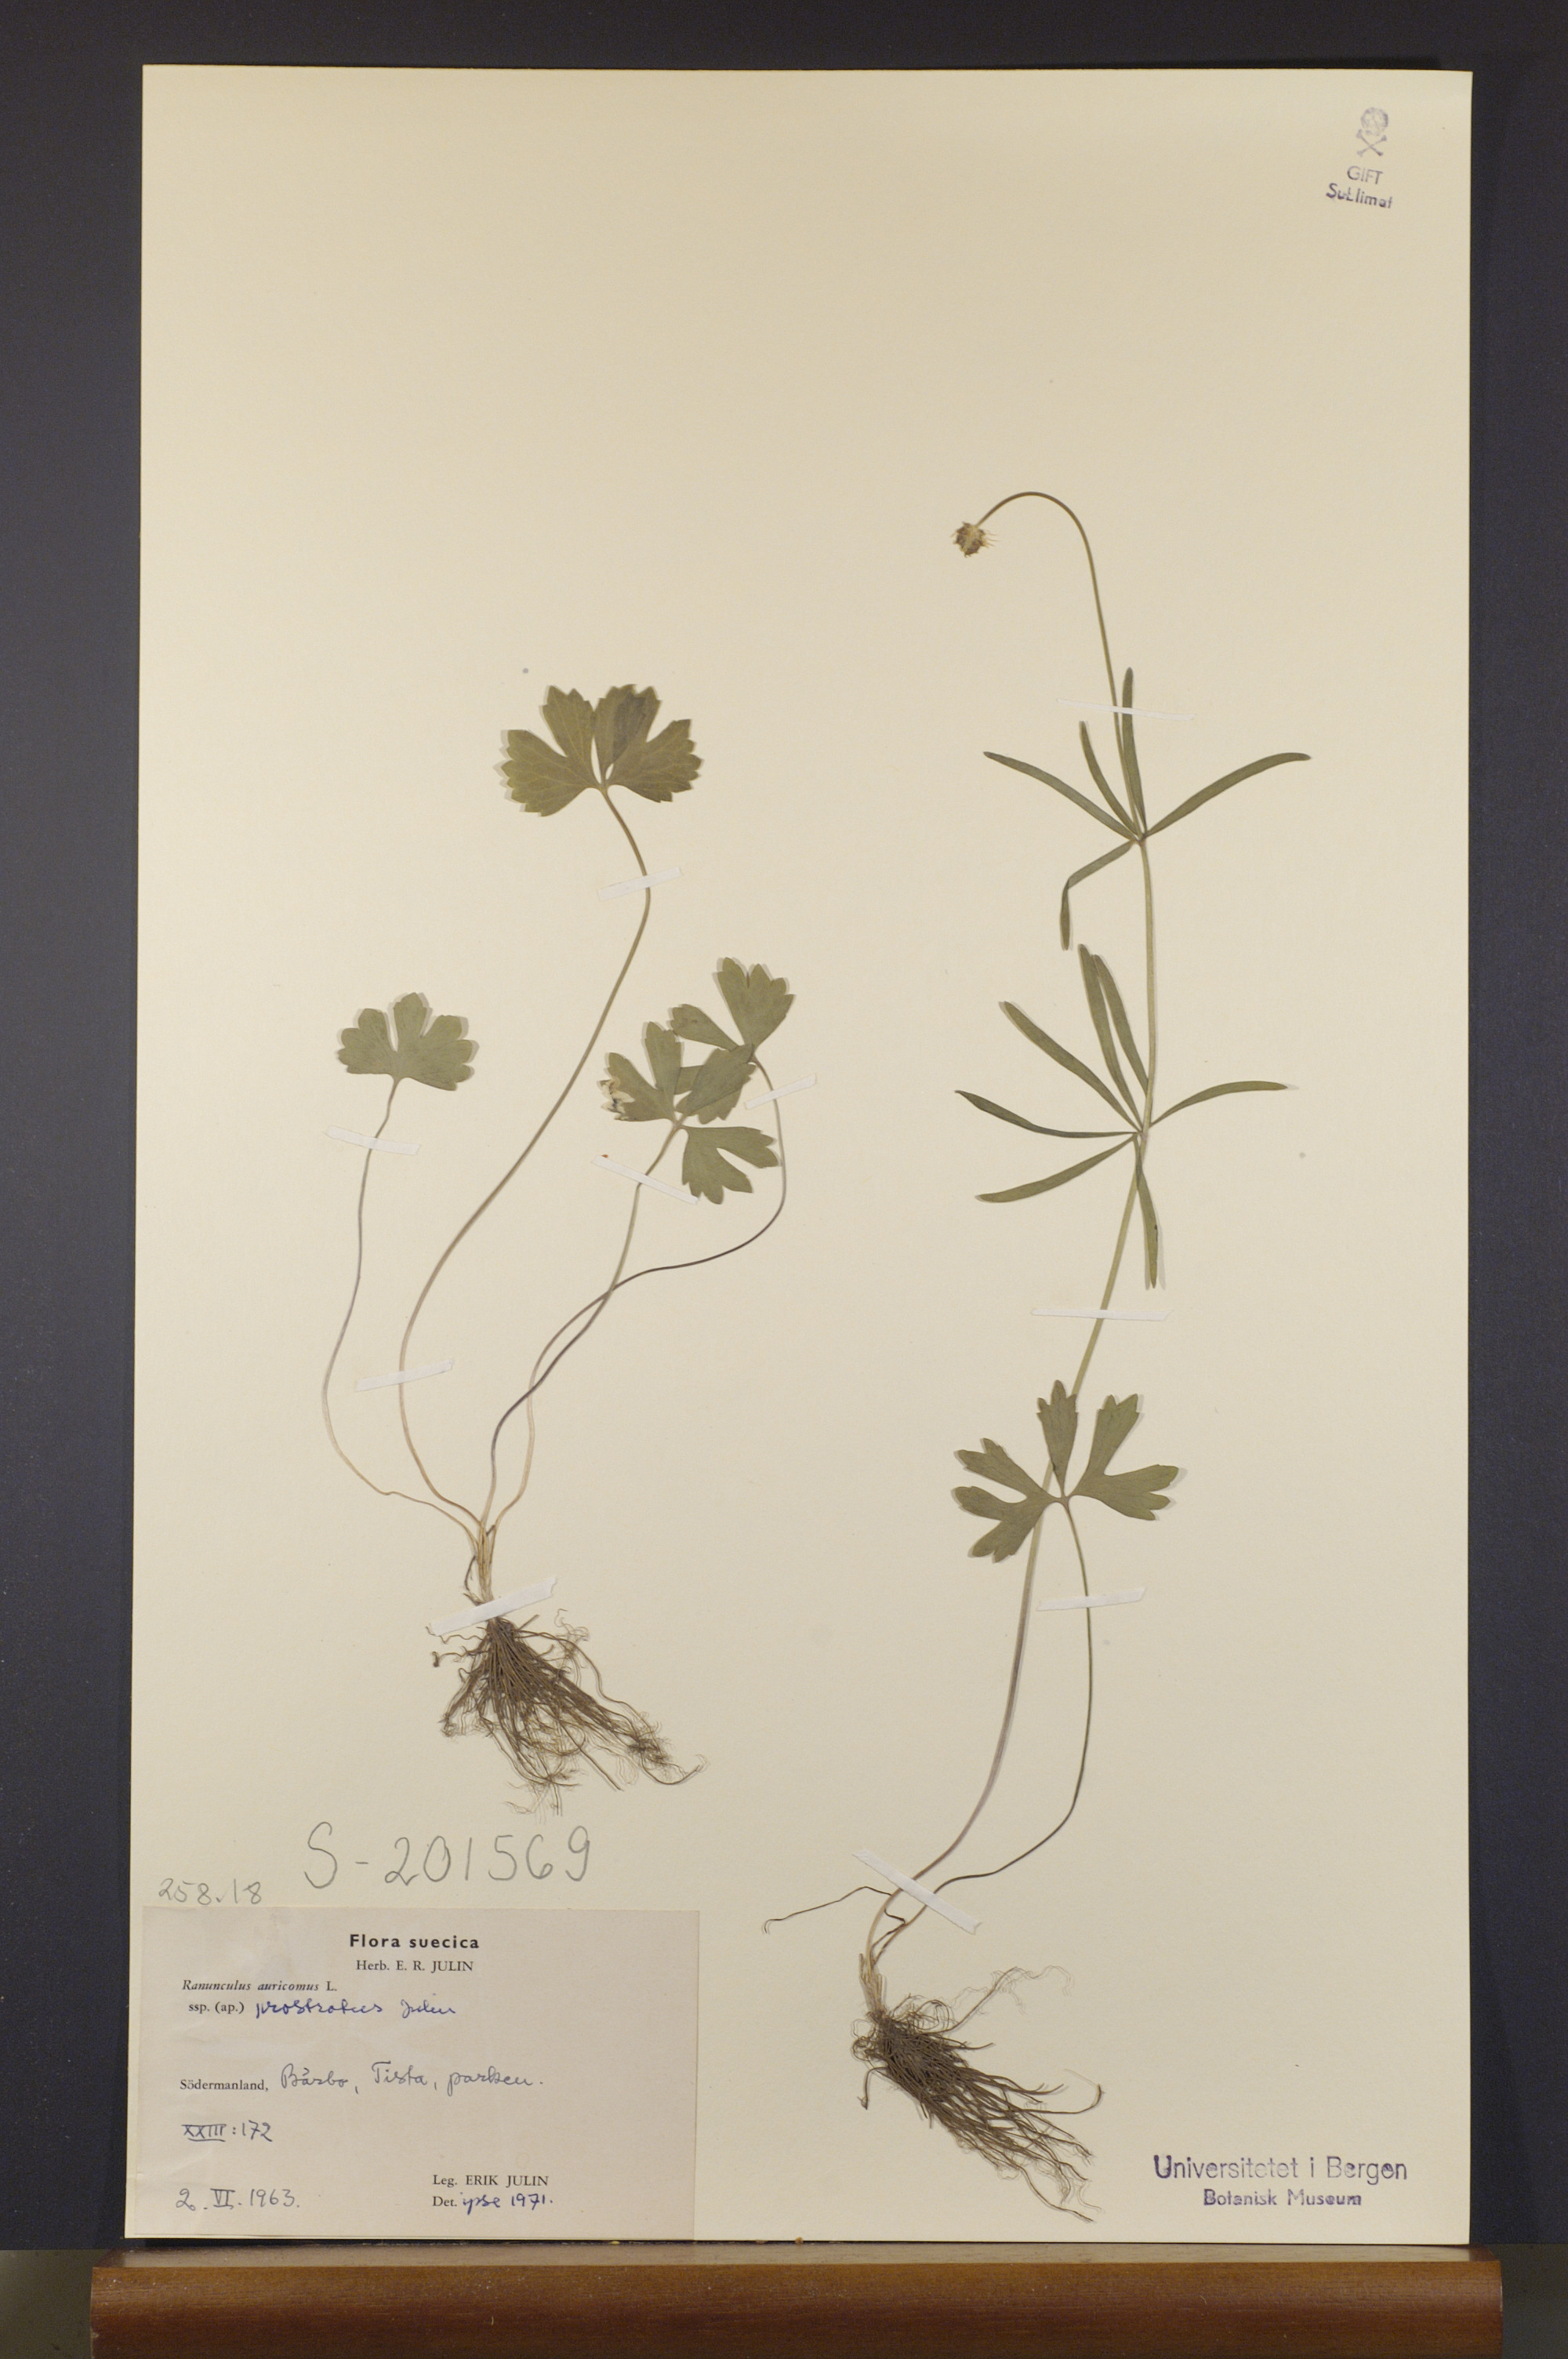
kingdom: Plantae
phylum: Tracheophyta
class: Magnoliopsida
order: Ranunculales
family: Ranunculaceae
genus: Ranunculus
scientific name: Ranunculus sudermannicus
